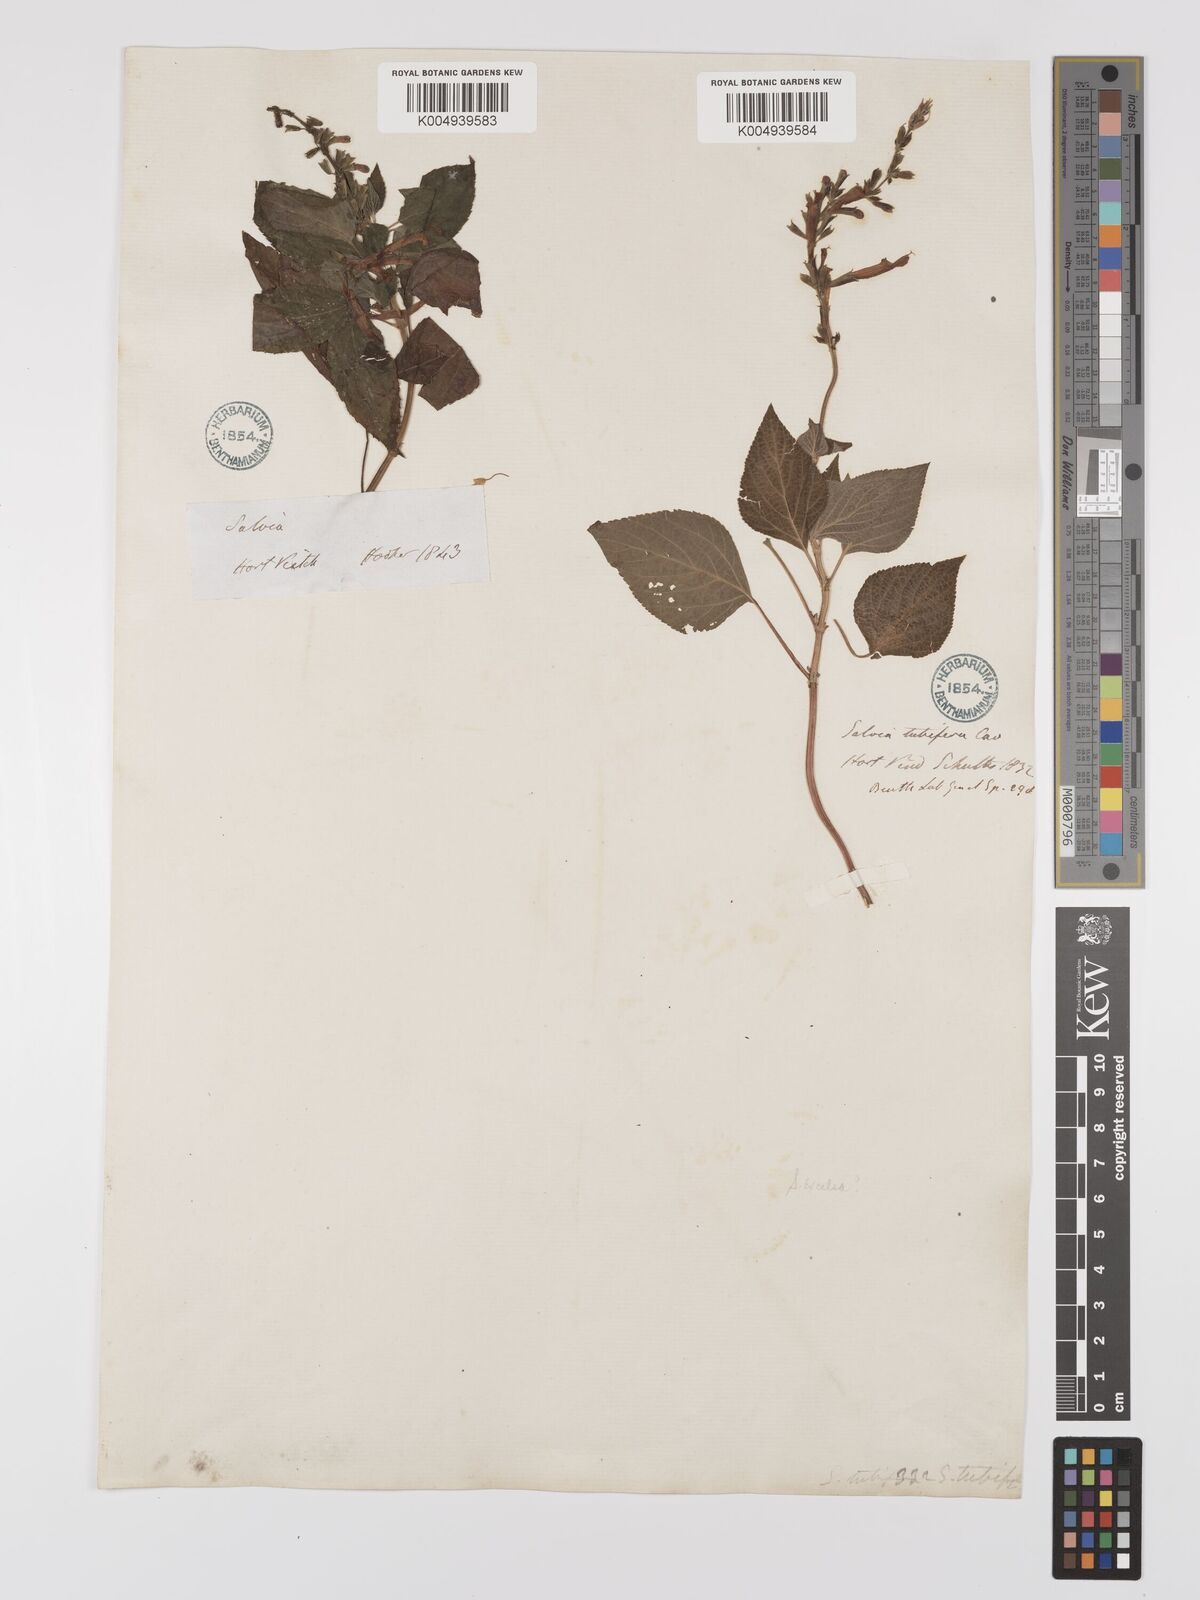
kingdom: Plantae
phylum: Tracheophyta
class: Magnoliopsida
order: Lamiales
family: Lamiaceae
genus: Salvia
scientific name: Salvia
